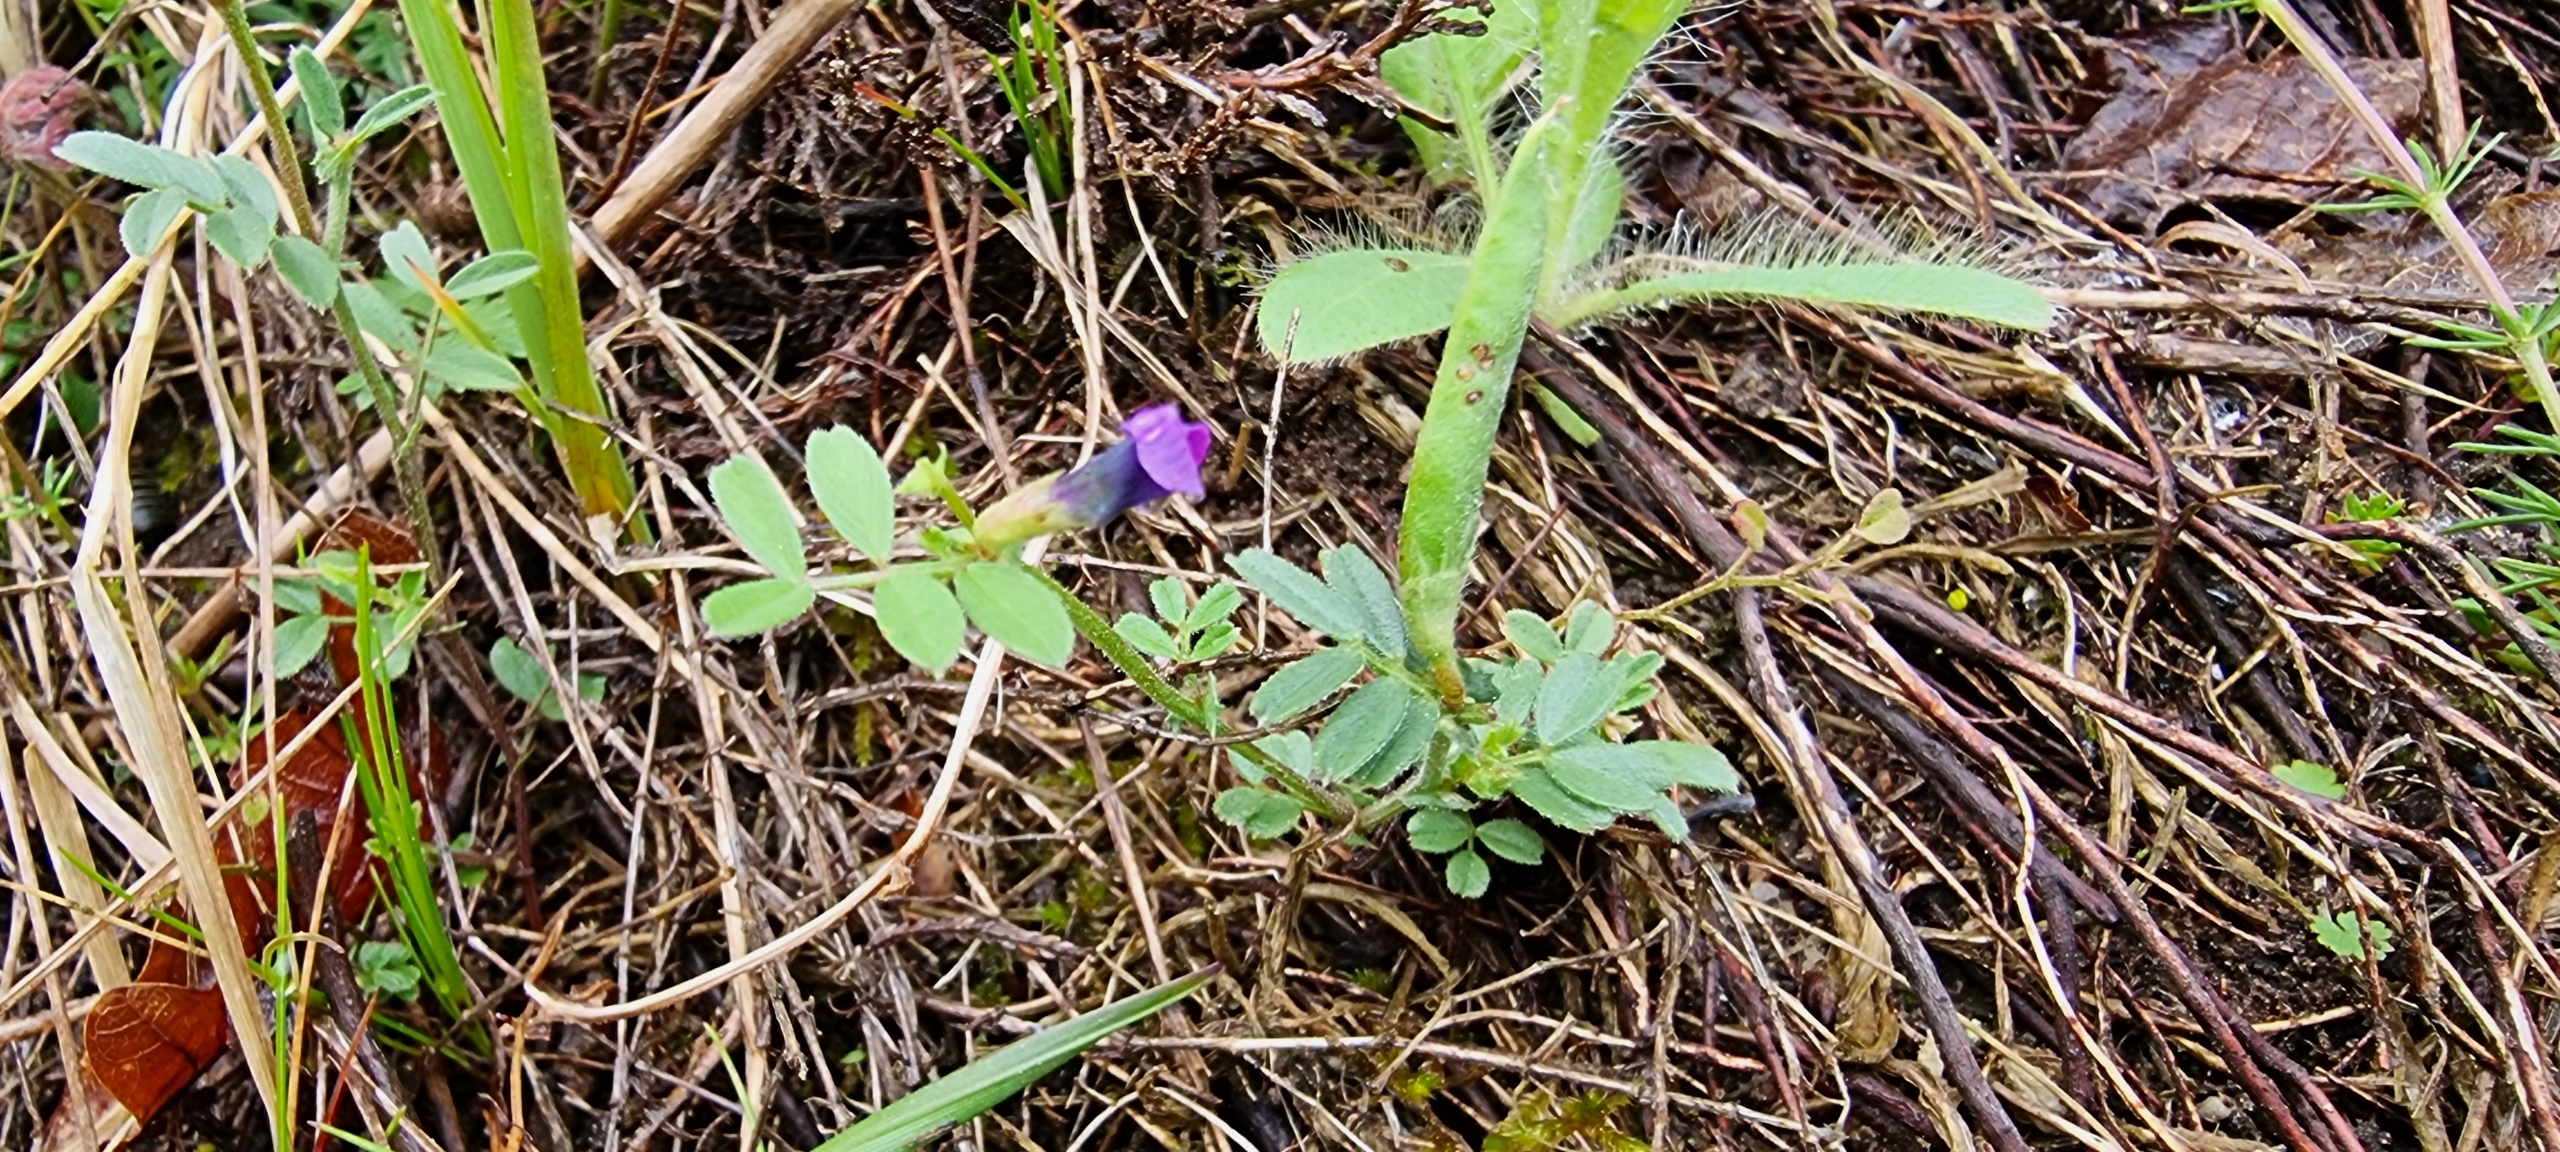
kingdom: Plantae
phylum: Tracheophyta
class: Magnoliopsida
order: Fabales
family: Fabaceae
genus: Vicia
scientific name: Vicia lathyroides
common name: Vår-vikke
